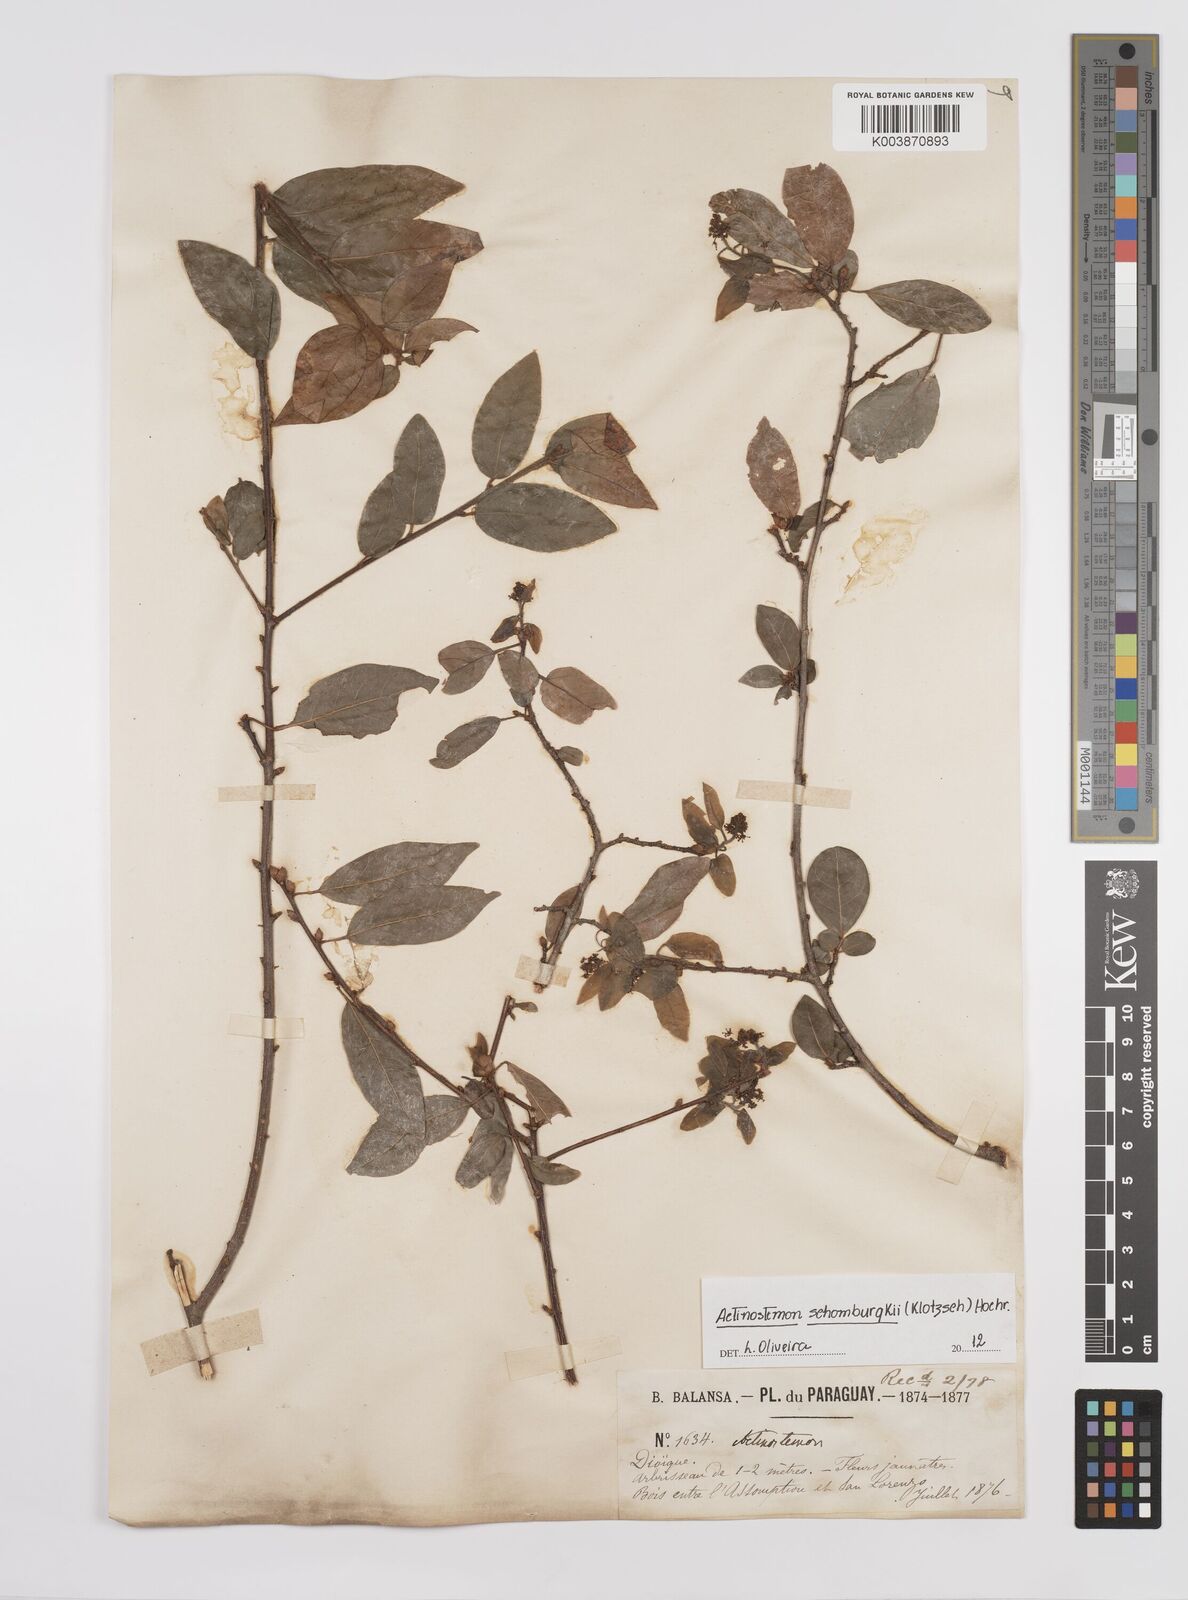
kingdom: Plantae
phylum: Tracheophyta
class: Magnoliopsida
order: Malpighiales
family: Euphorbiaceae
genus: Actinostemon
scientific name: Actinostemon schomburgkii
